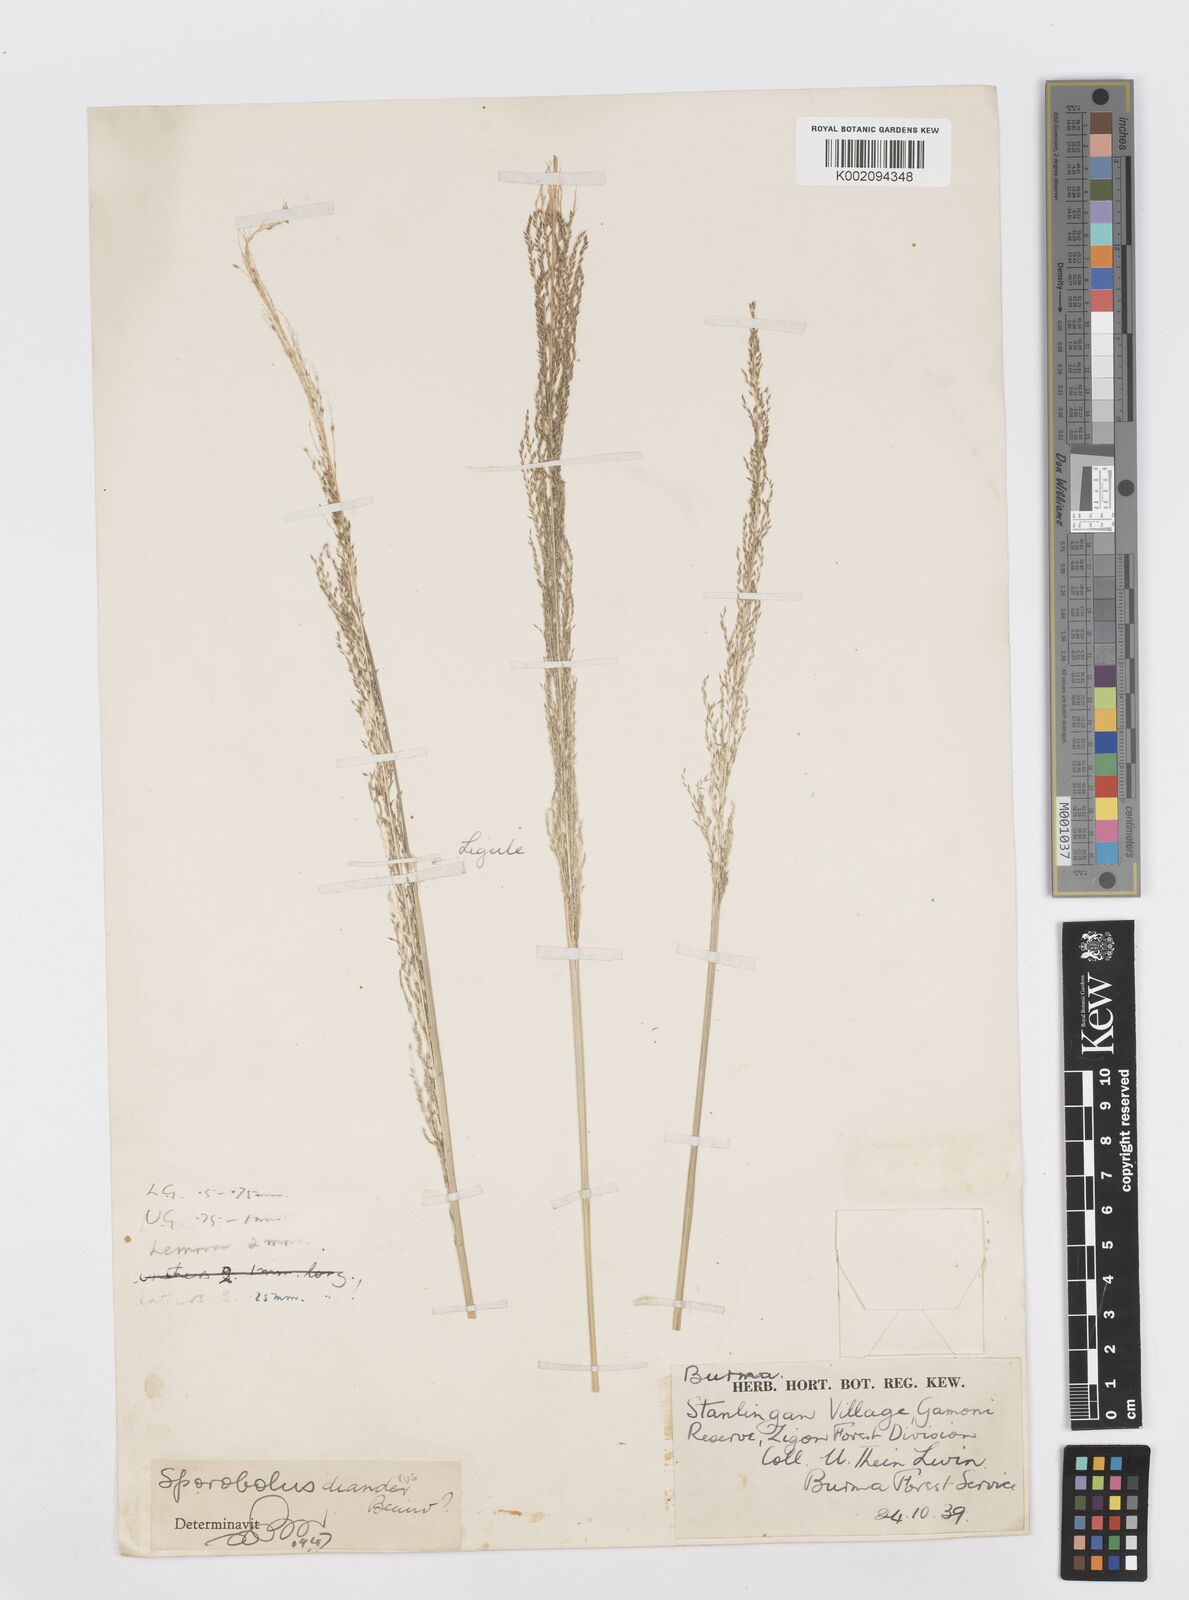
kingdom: Plantae
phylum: Tracheophyta
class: Liliopsida
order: Poales
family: Poaceae
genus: Sporobolus
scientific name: Sporobolus diandrus
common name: Tussock dropseed
